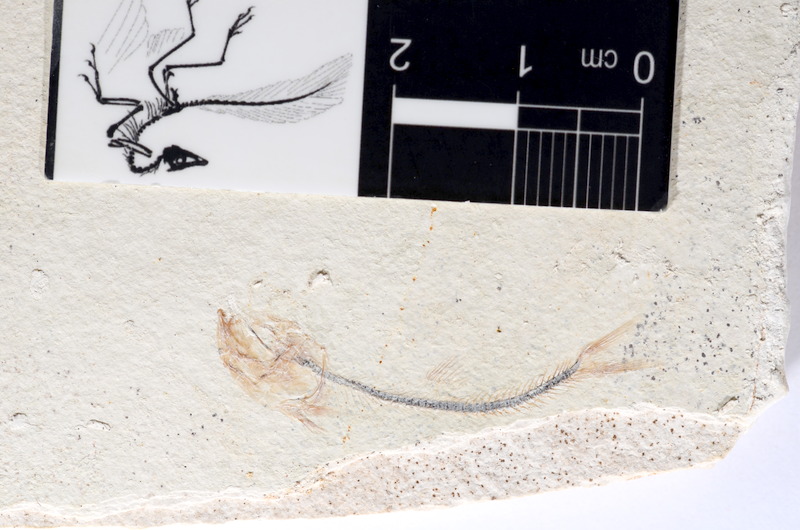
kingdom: Animalia
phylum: Chordata
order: Salmoniformes
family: Orthogonikleithridae
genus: Orthogonikleithrus
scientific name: Orthogonikleithrus hoelli
